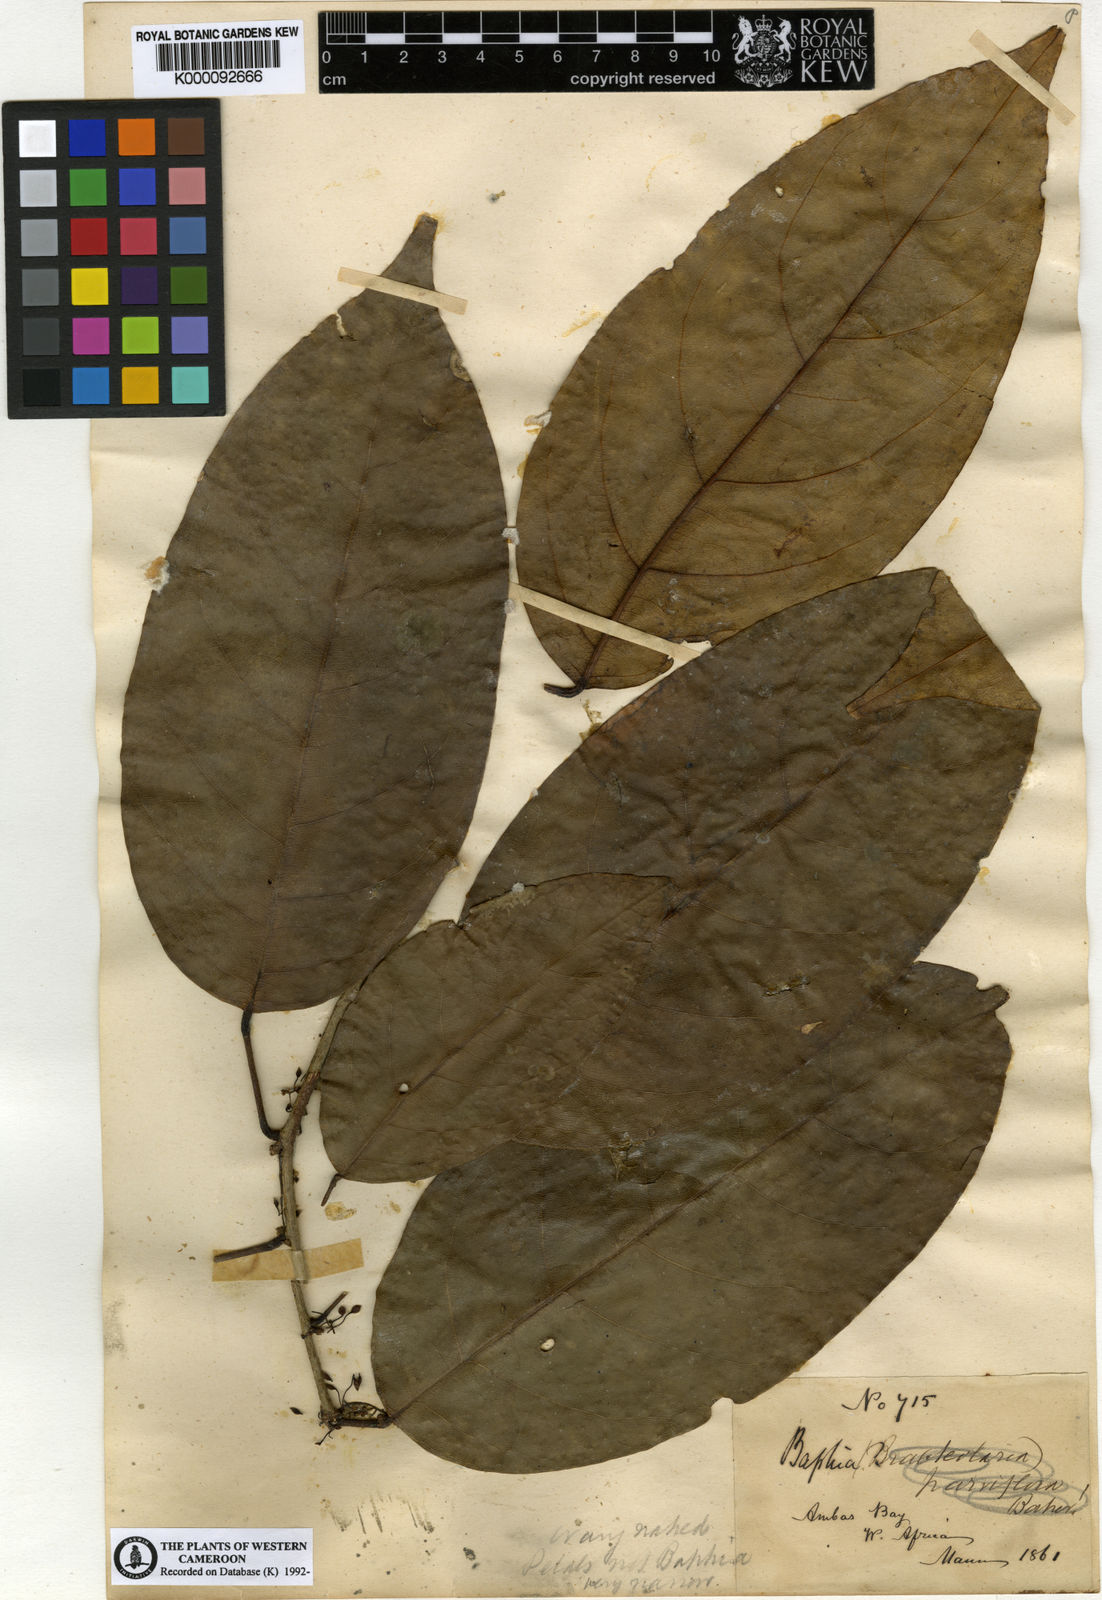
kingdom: Plantae
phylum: Tracheophyta
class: Magnoliopsida
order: Fabales
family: Fabaceae
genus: Baphiopsis
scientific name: Baphiopsis parviflora
